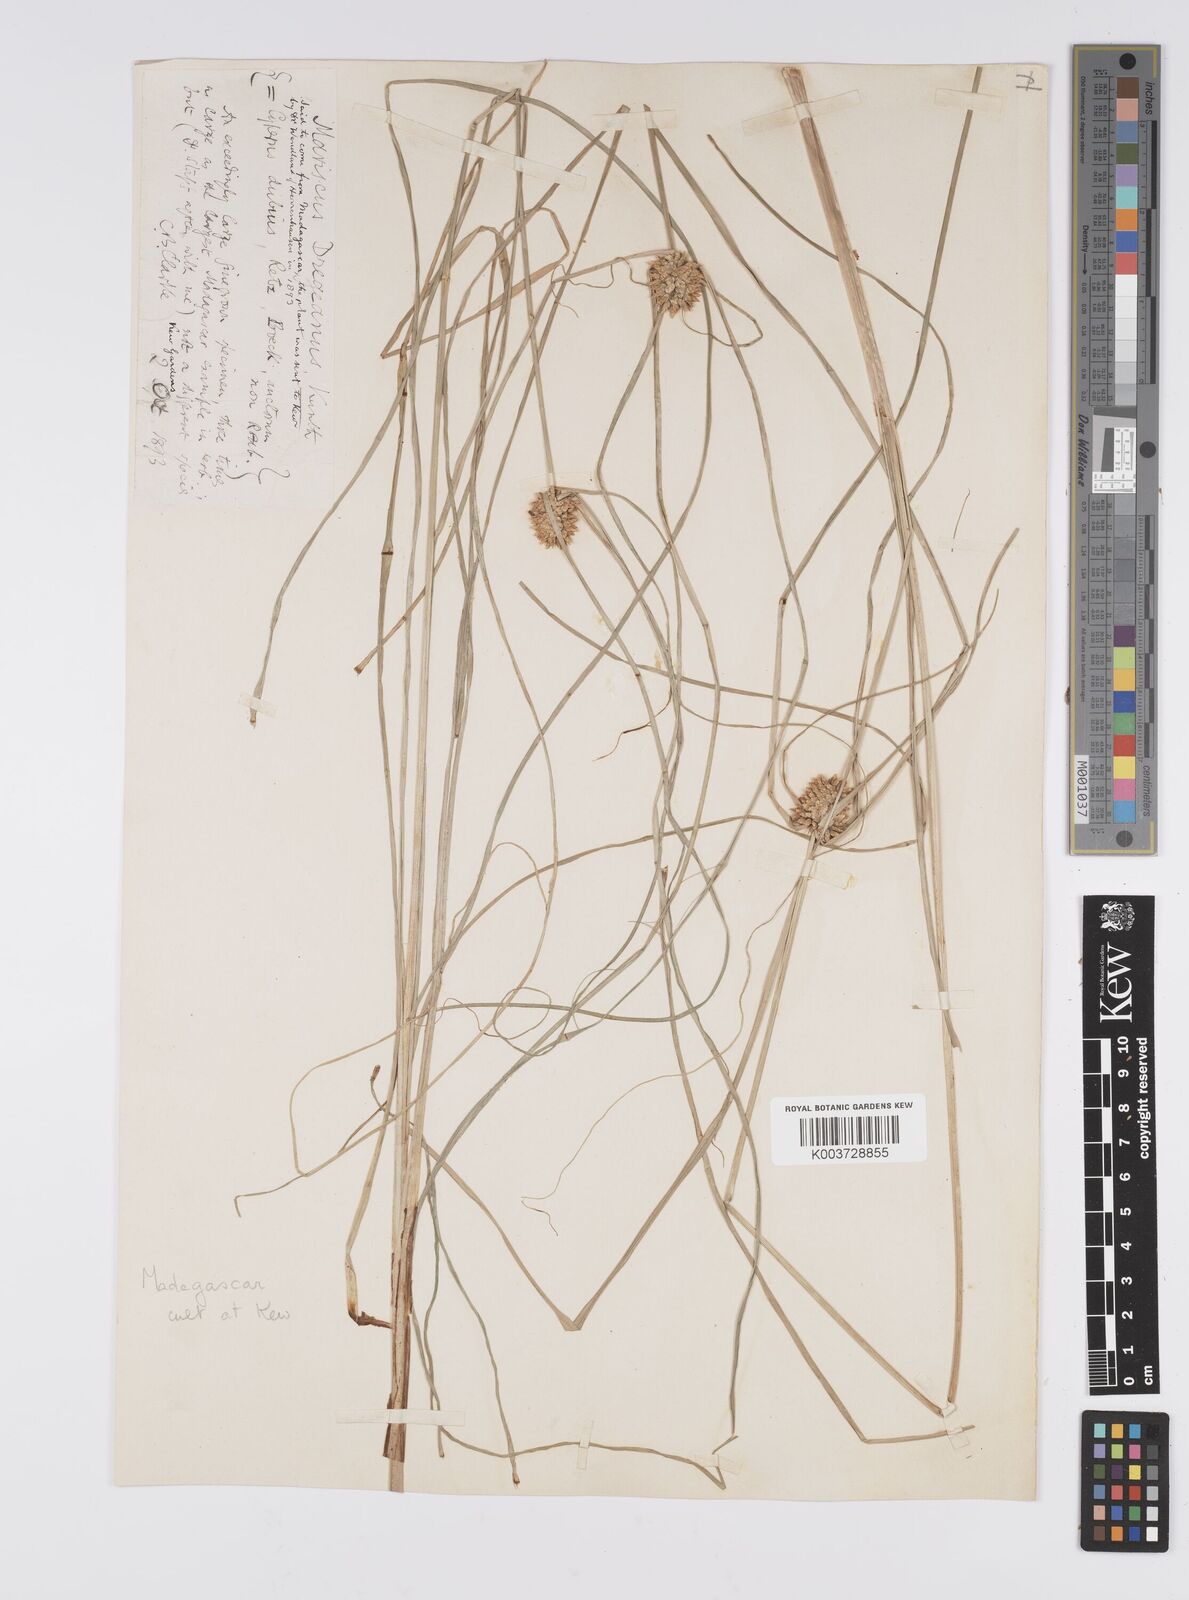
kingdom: Plantae
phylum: Tracheophyta
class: Liliopsida
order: Poales
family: Cyperaceae
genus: Cyperus
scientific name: Cyperus dubius
